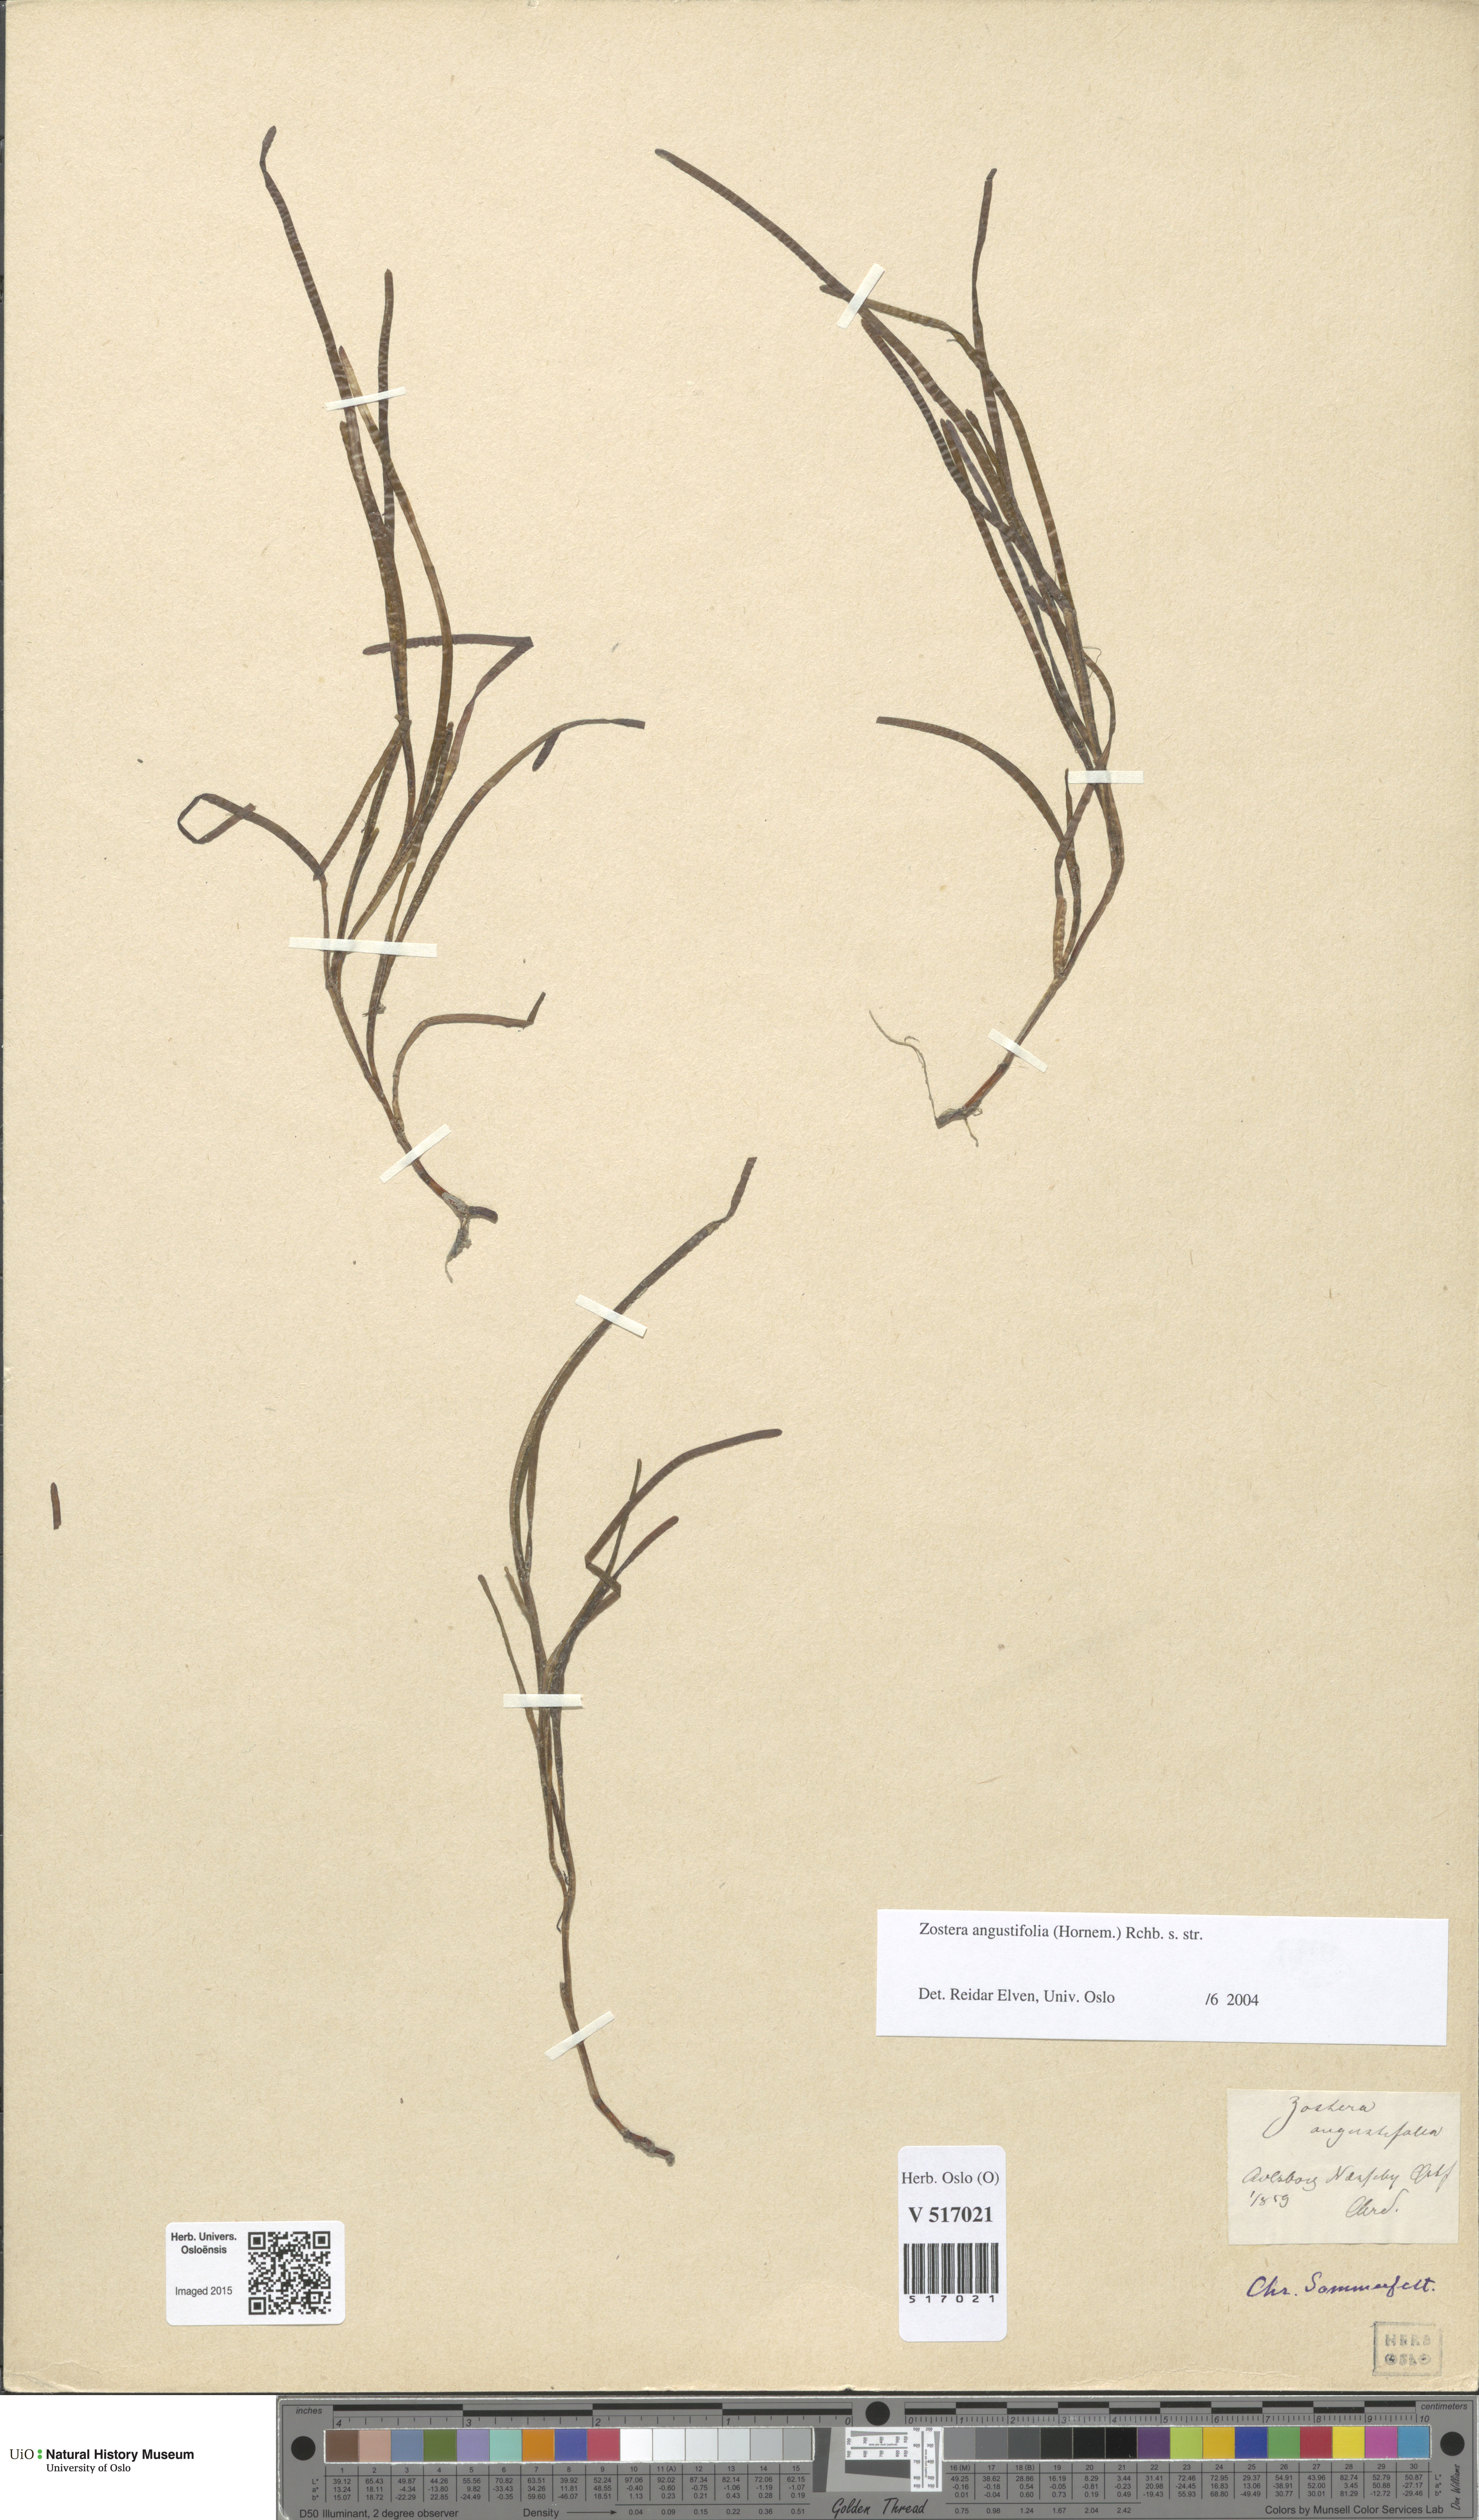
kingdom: Plantae
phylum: Tracheophyta
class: Liliopsida
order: Alismatales
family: Zosteraceae
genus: Zostera
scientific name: Zostera angustifolia
